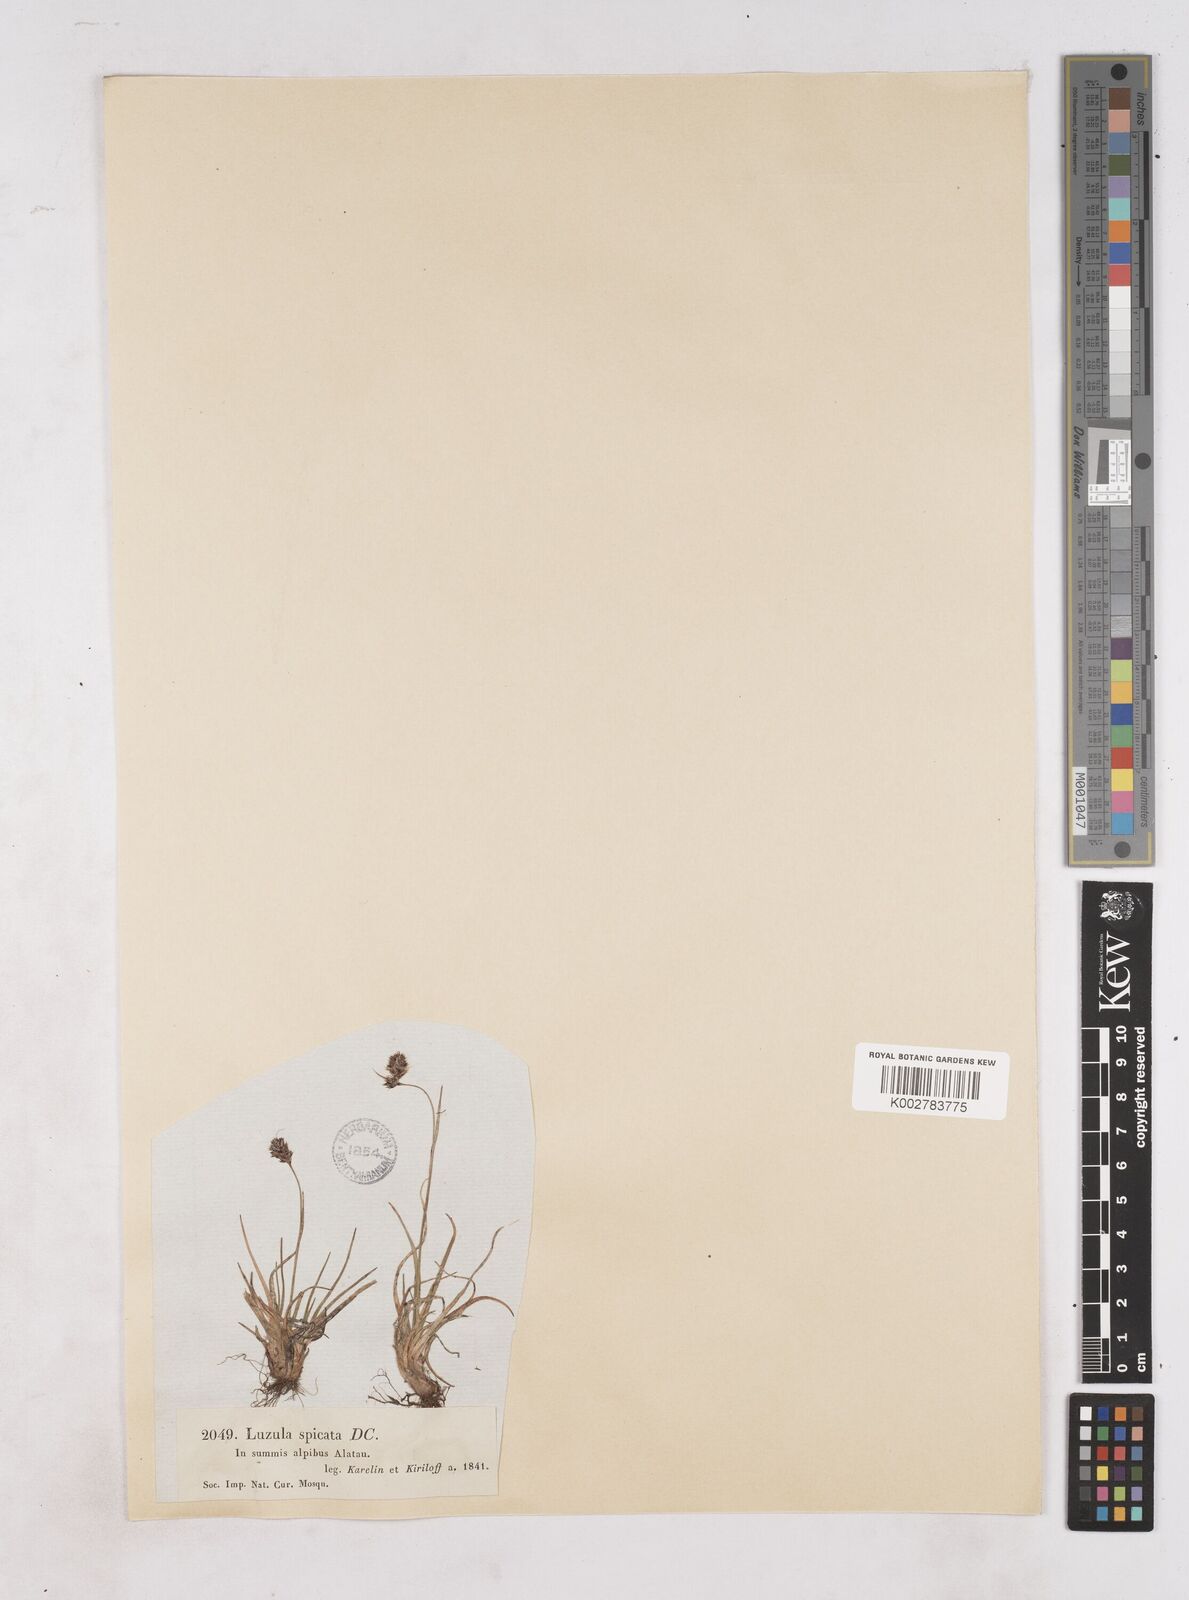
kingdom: Plantae
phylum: Tracheophyta
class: Liliopsida
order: Poales
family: Juncaceae
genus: Luzula
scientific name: Luzula spicata
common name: Spiked wood-rush
